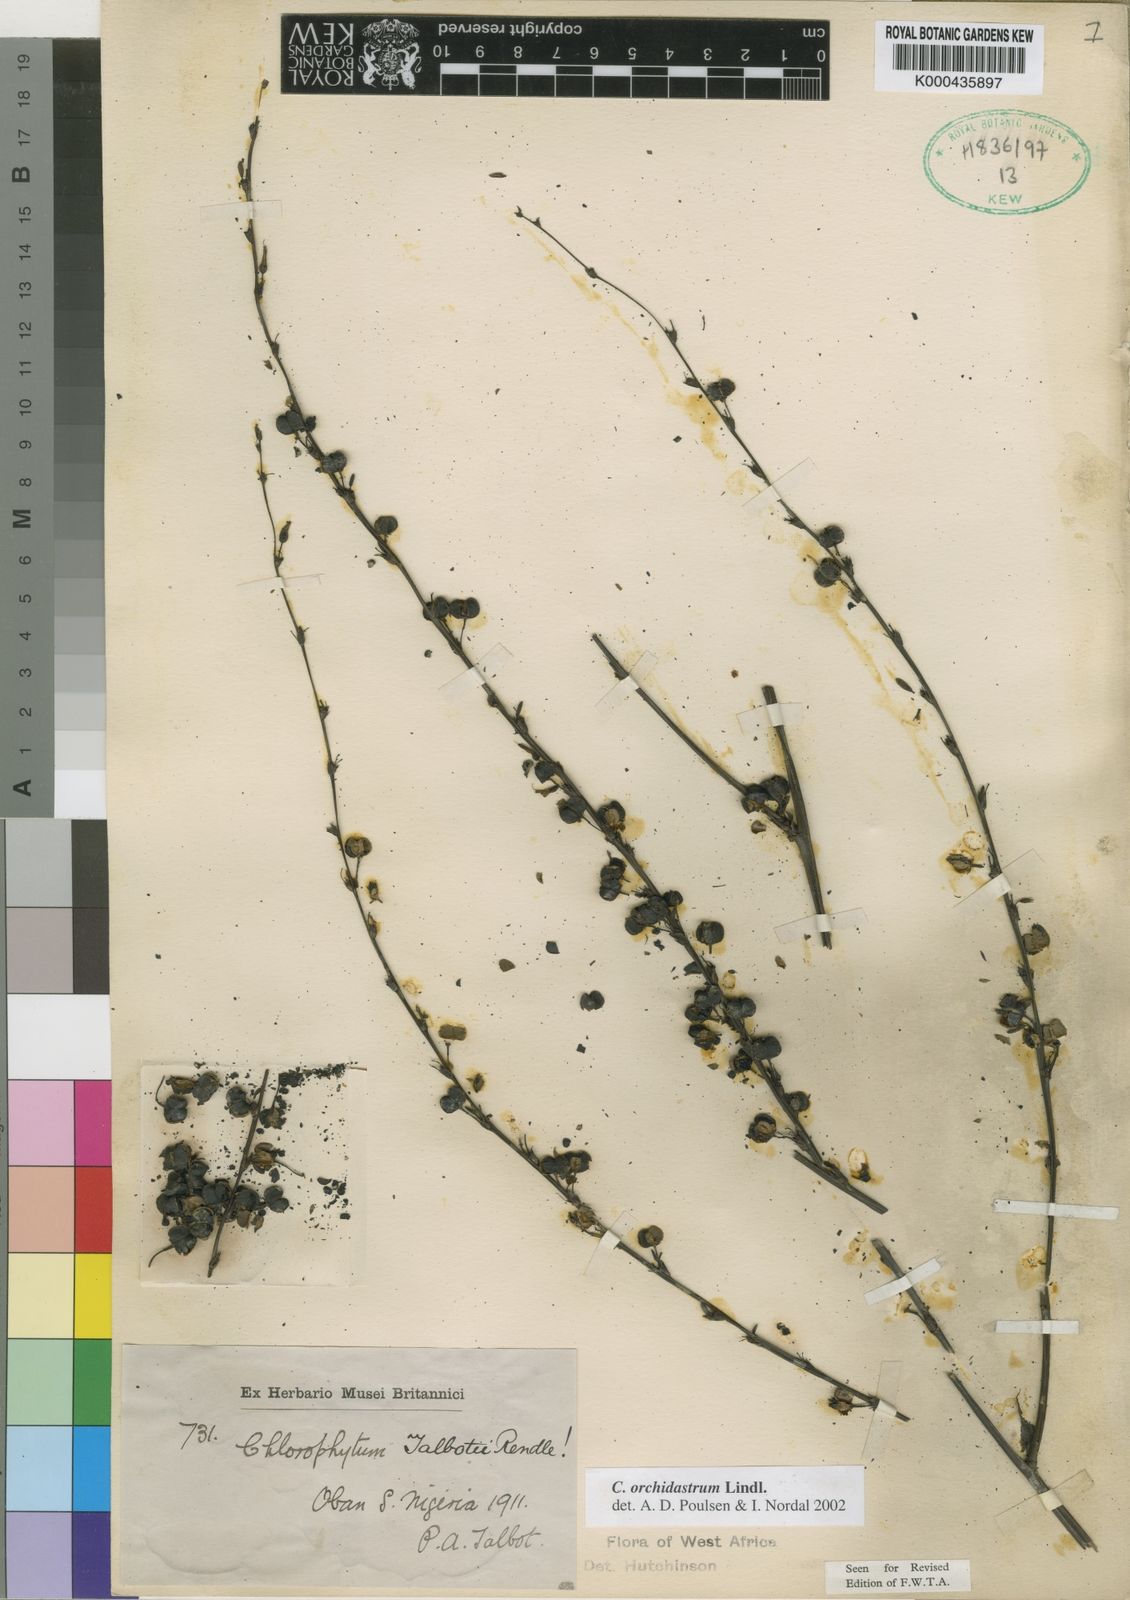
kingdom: Plantae
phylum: Tracheophyta
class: Liliopsida
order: Asparagales
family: Asparagaceae
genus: Chlorophytum
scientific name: Chlorophytum orchidastrum
